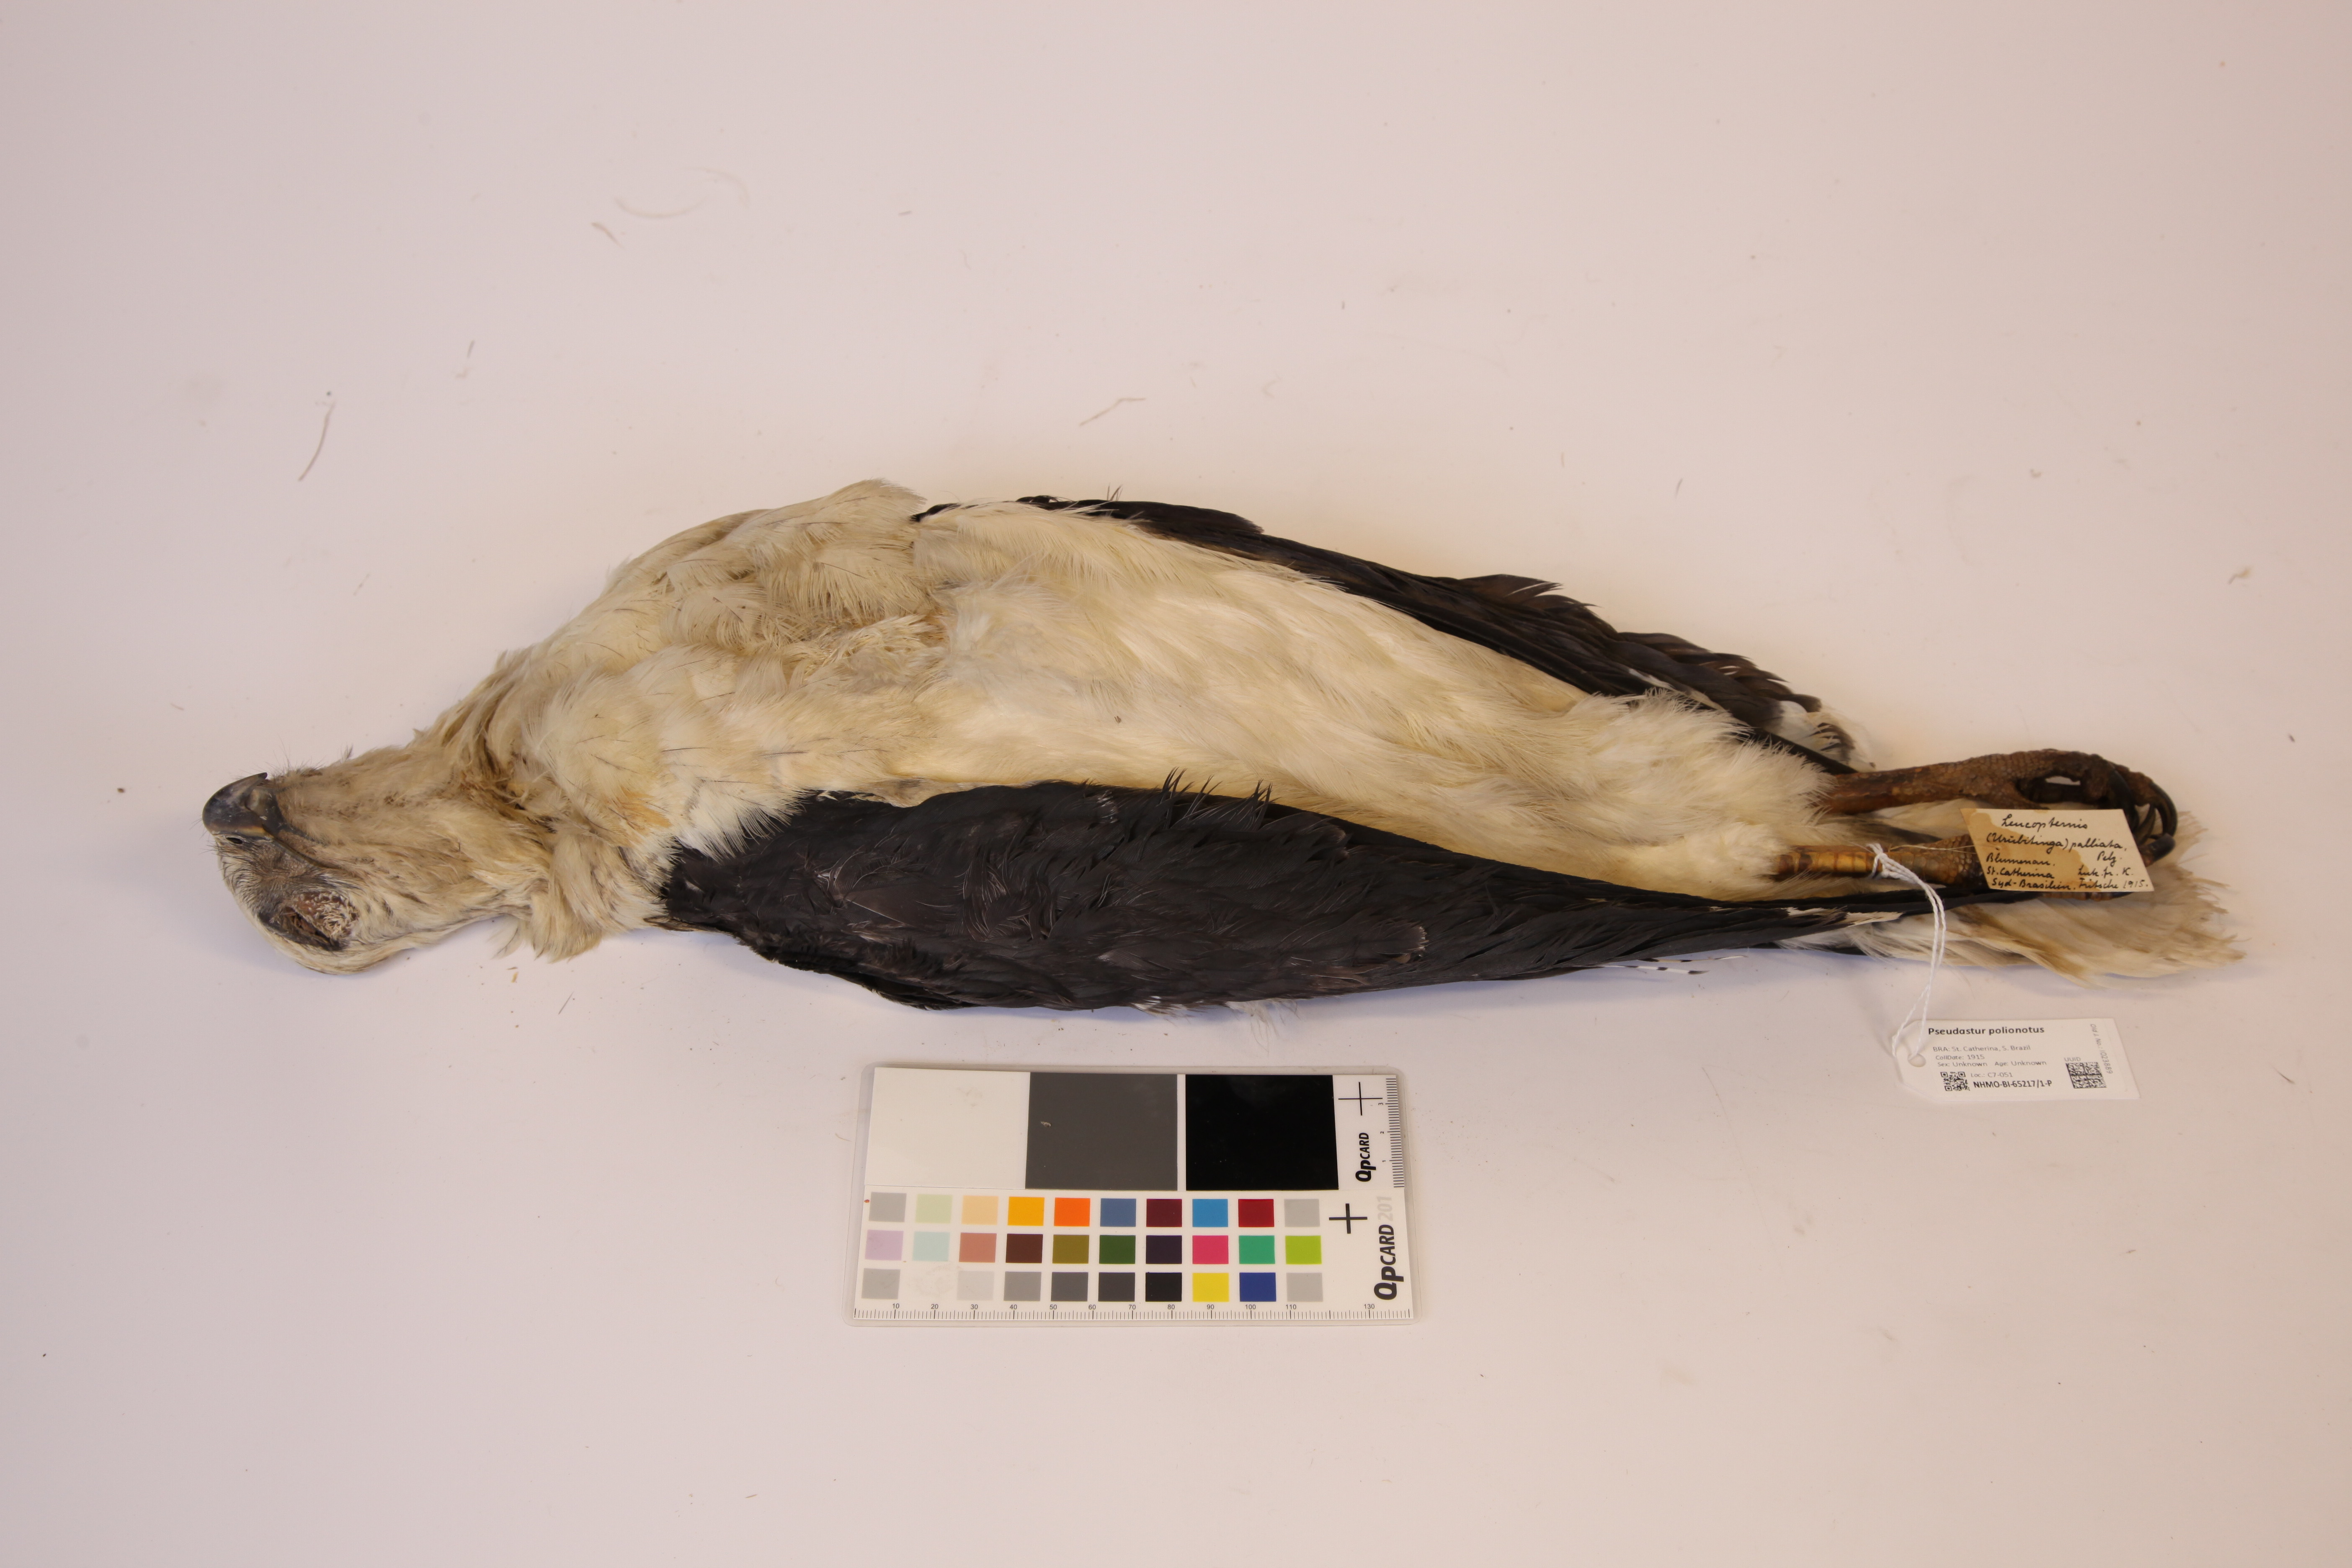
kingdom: Animalia
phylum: Chordata
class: Aves
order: Accipitriformes
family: Accipitridae
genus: Leucopternis
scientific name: Leucopternis polionotus
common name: Mantled hawk
